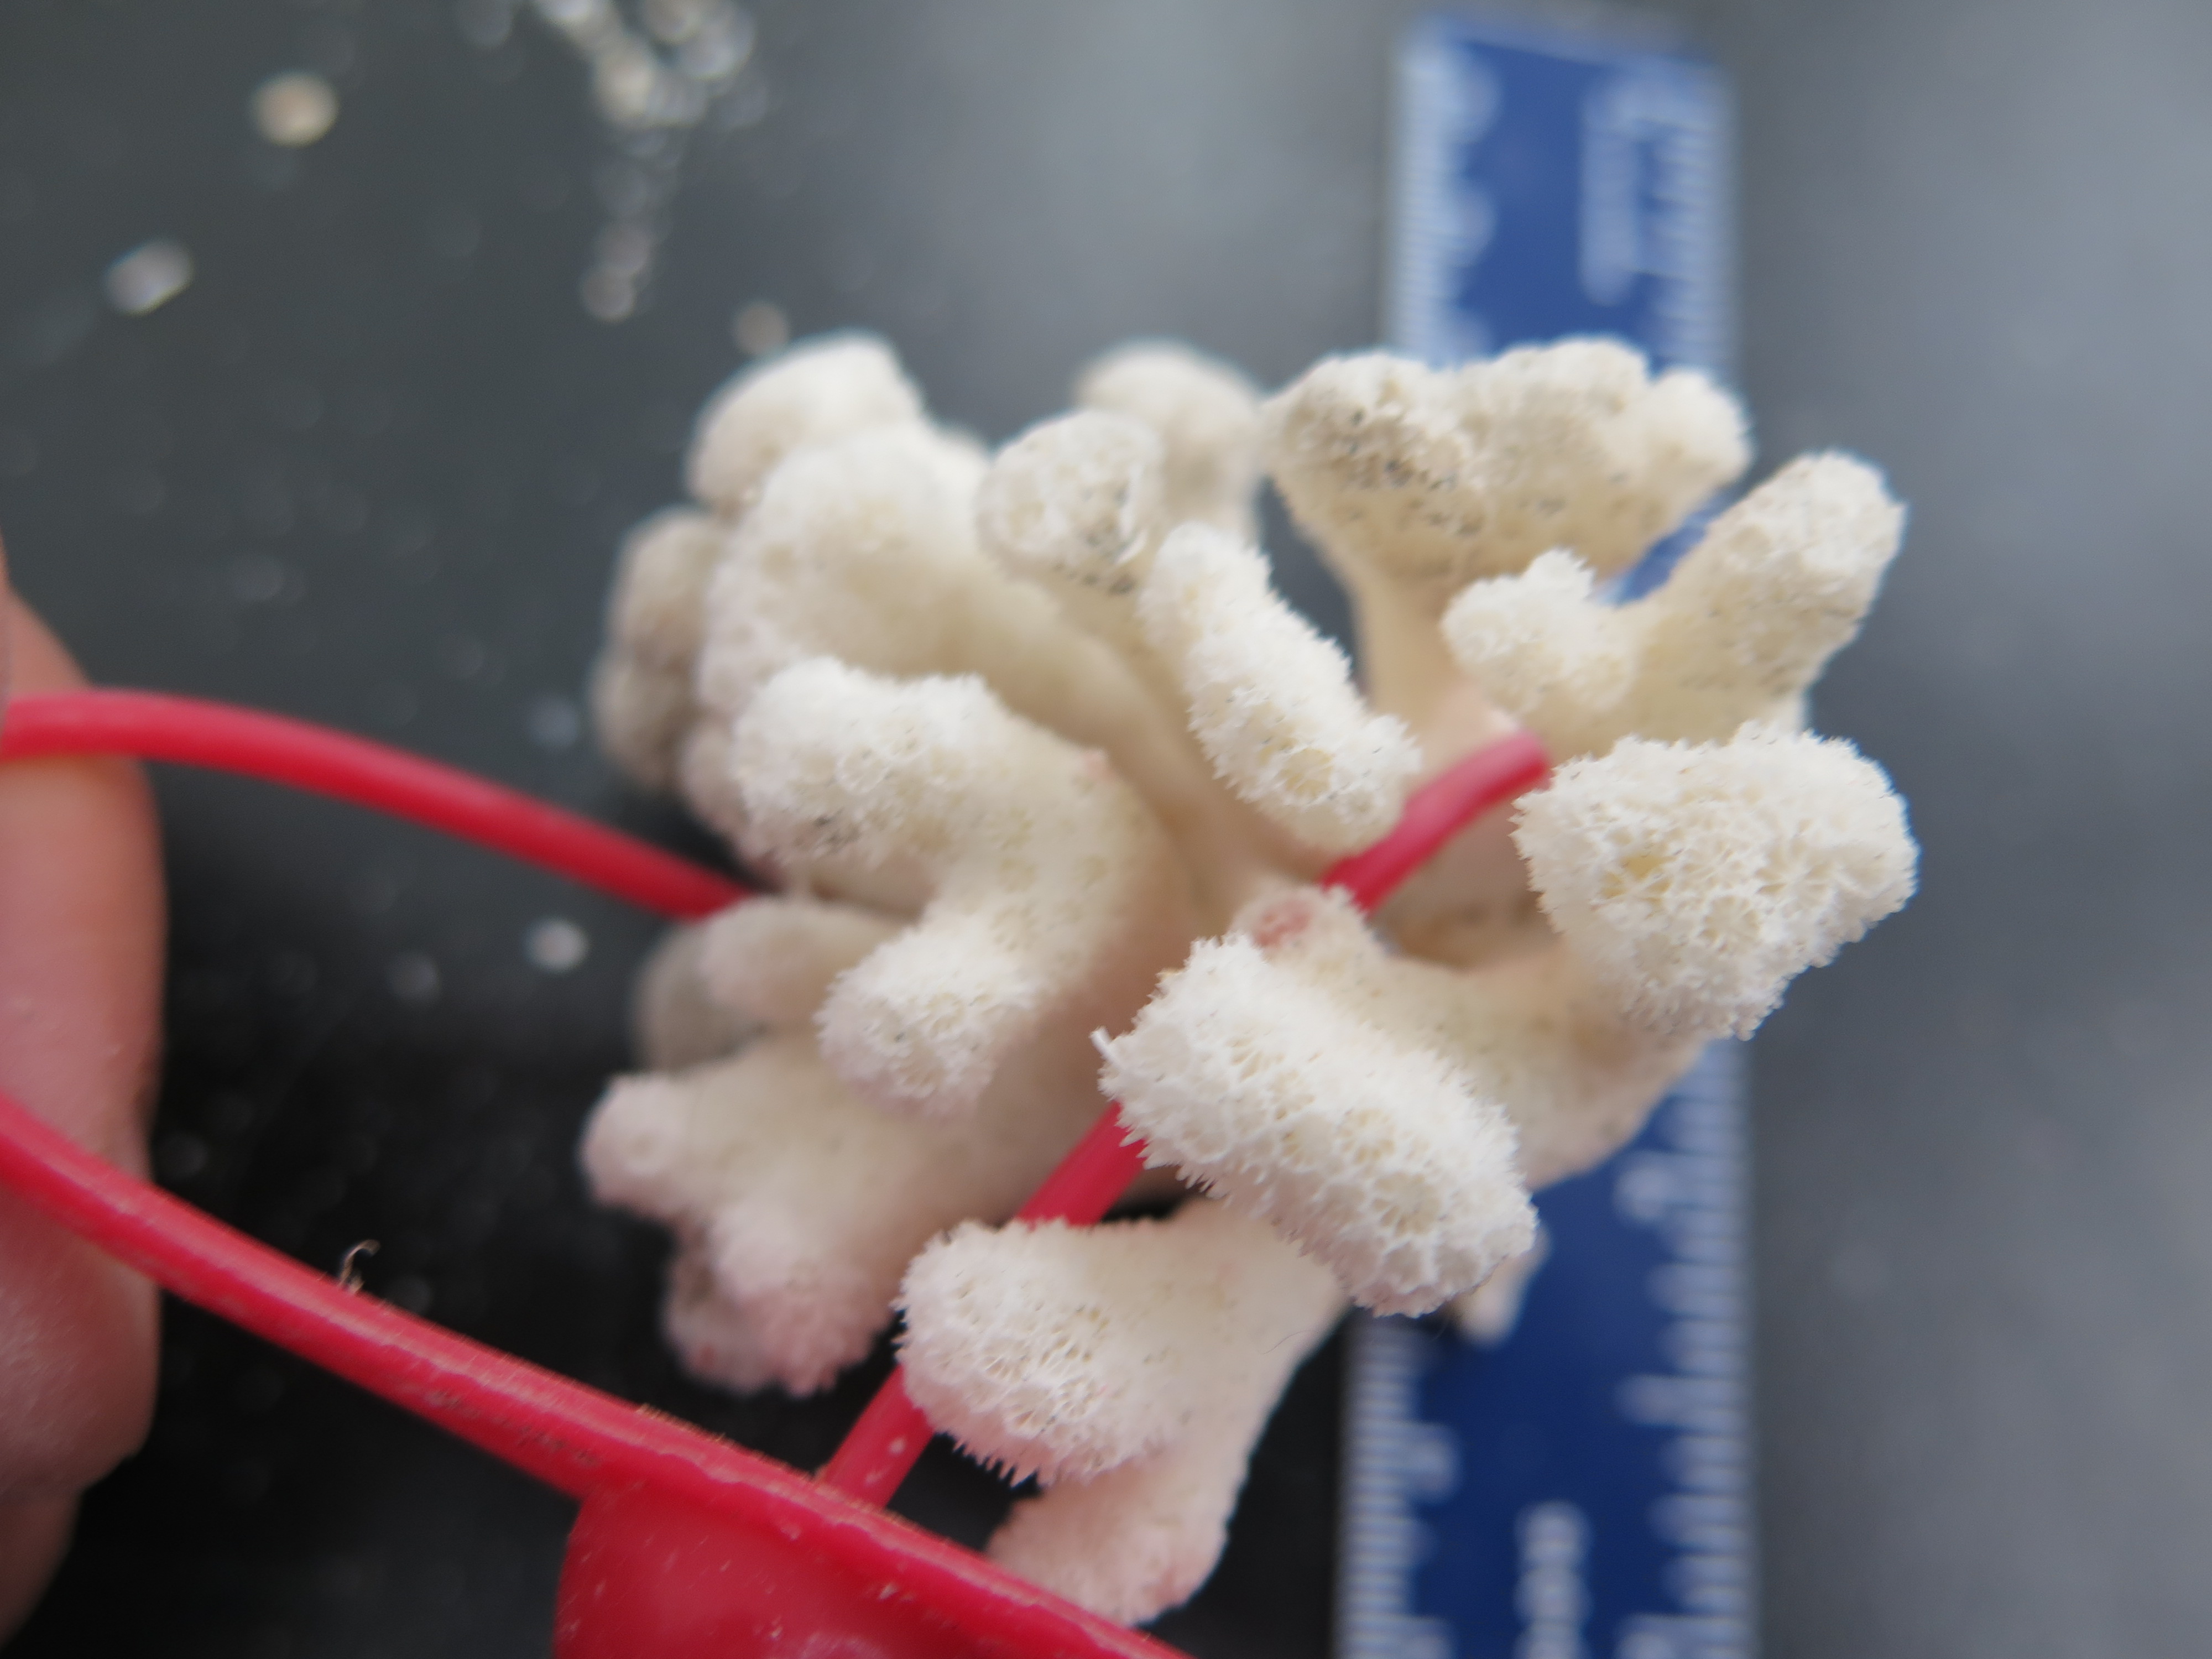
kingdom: Animalia
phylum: Cnidaria
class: Anthozoa
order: Scleractinia
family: Pocilloporidae
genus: Madracis
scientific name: Madracis auretenra
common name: Yellow pencil coral
